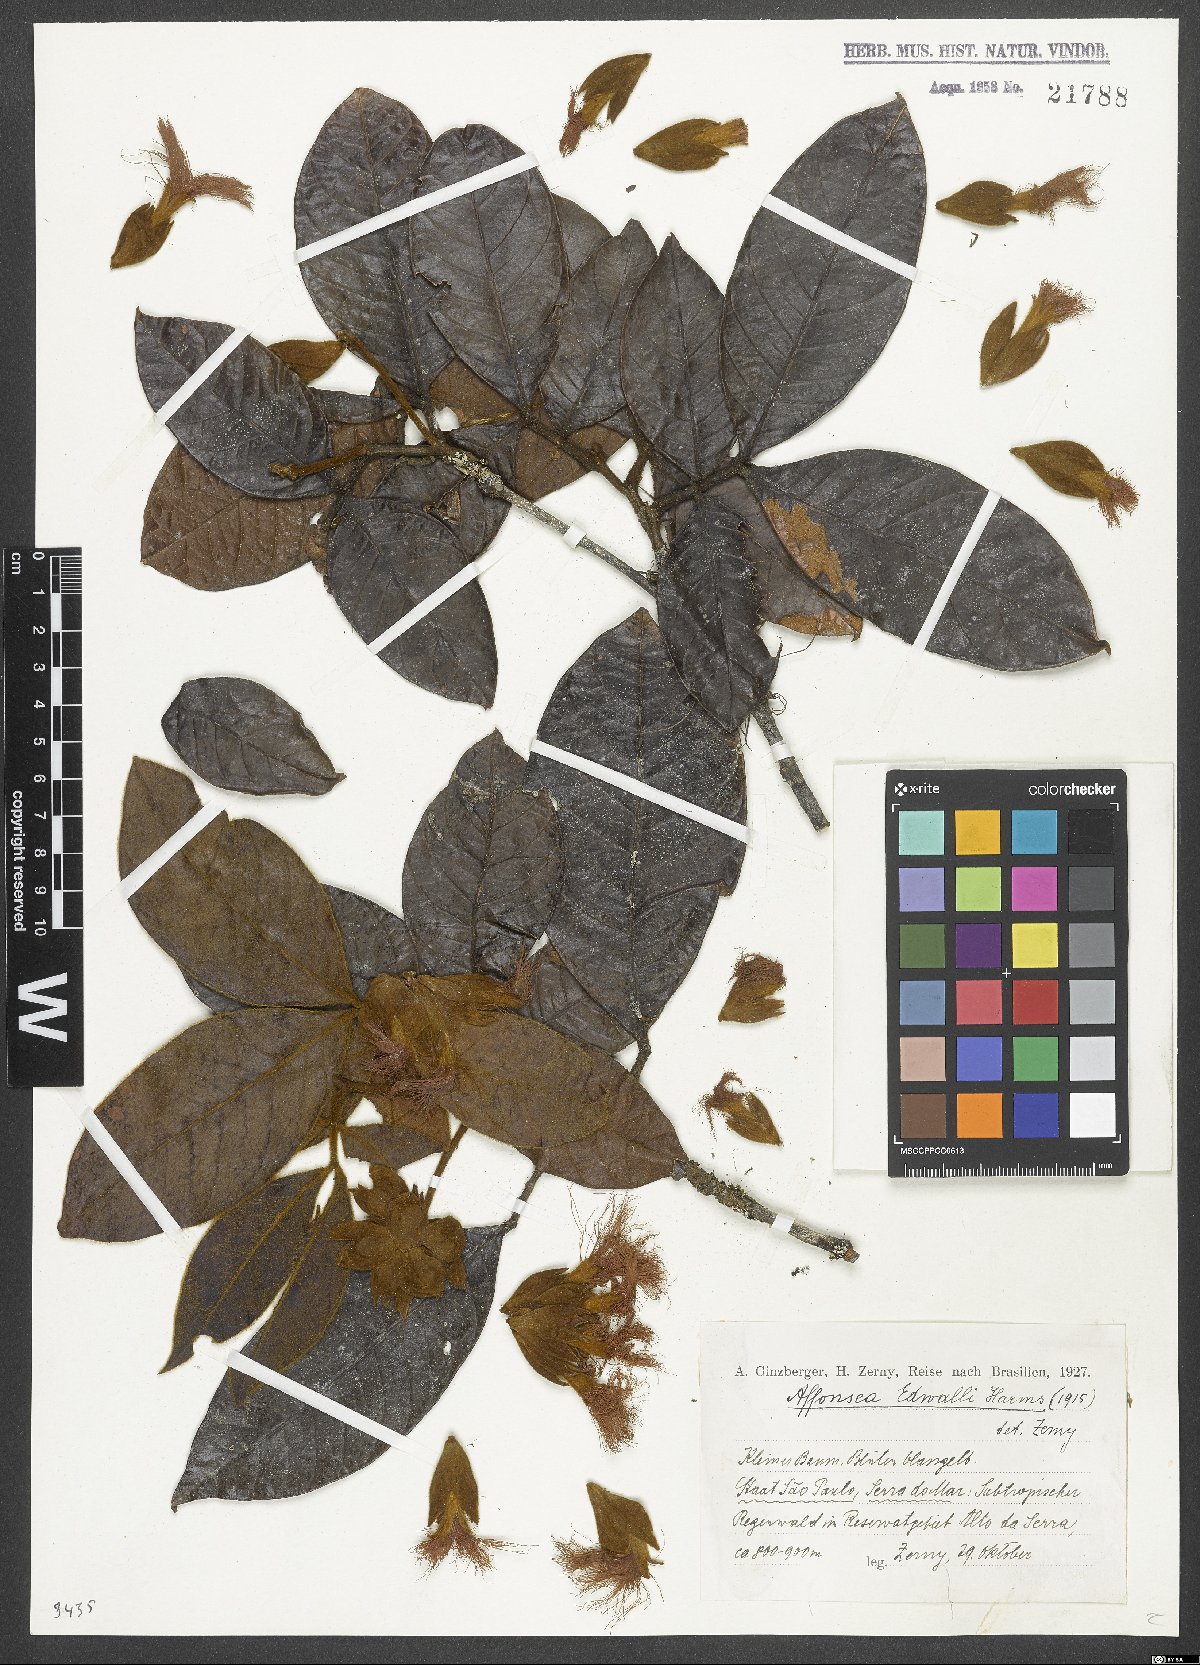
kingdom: Plantae
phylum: Tracheophyta
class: Magnoliopsida
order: Fabales
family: Fabaceae
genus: Inga
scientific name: Inga edwallii
